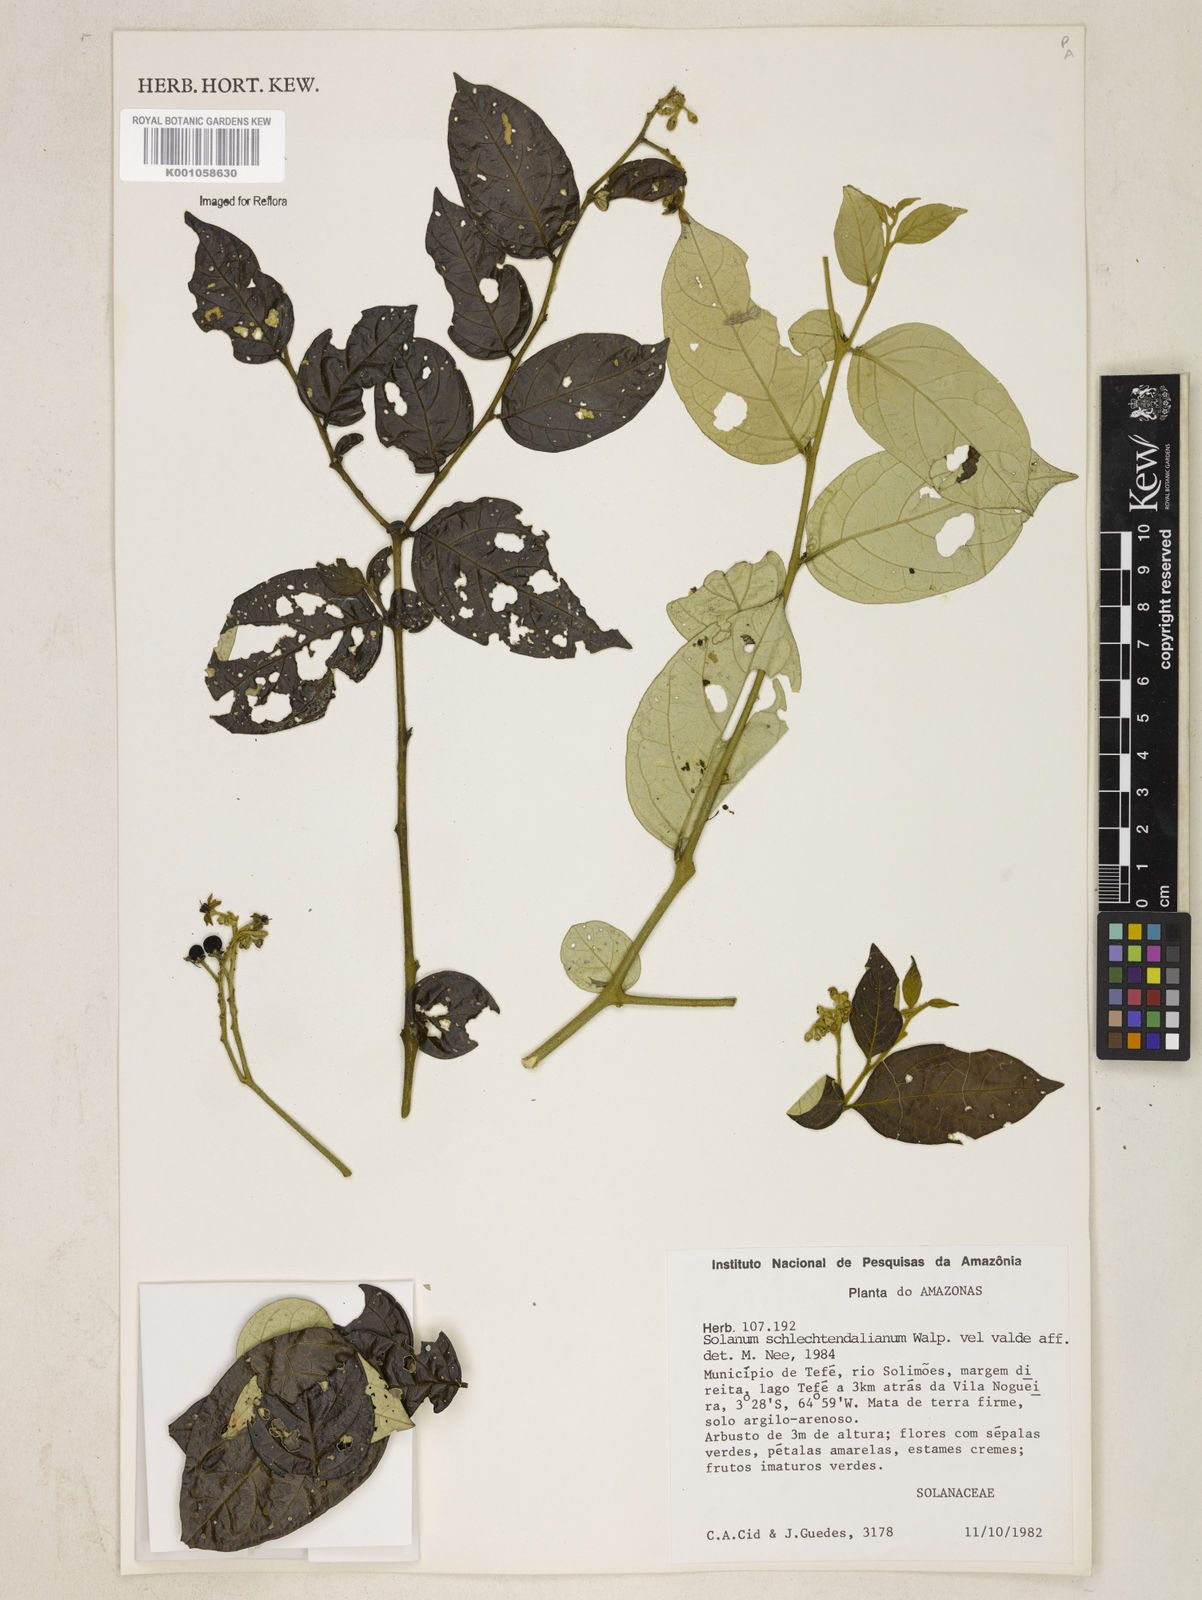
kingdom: Plantae
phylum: Tracheophyta
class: Magnoliopsida
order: Solanales
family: Solanaceae
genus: Solanum
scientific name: Solanum schlechtendalianum
